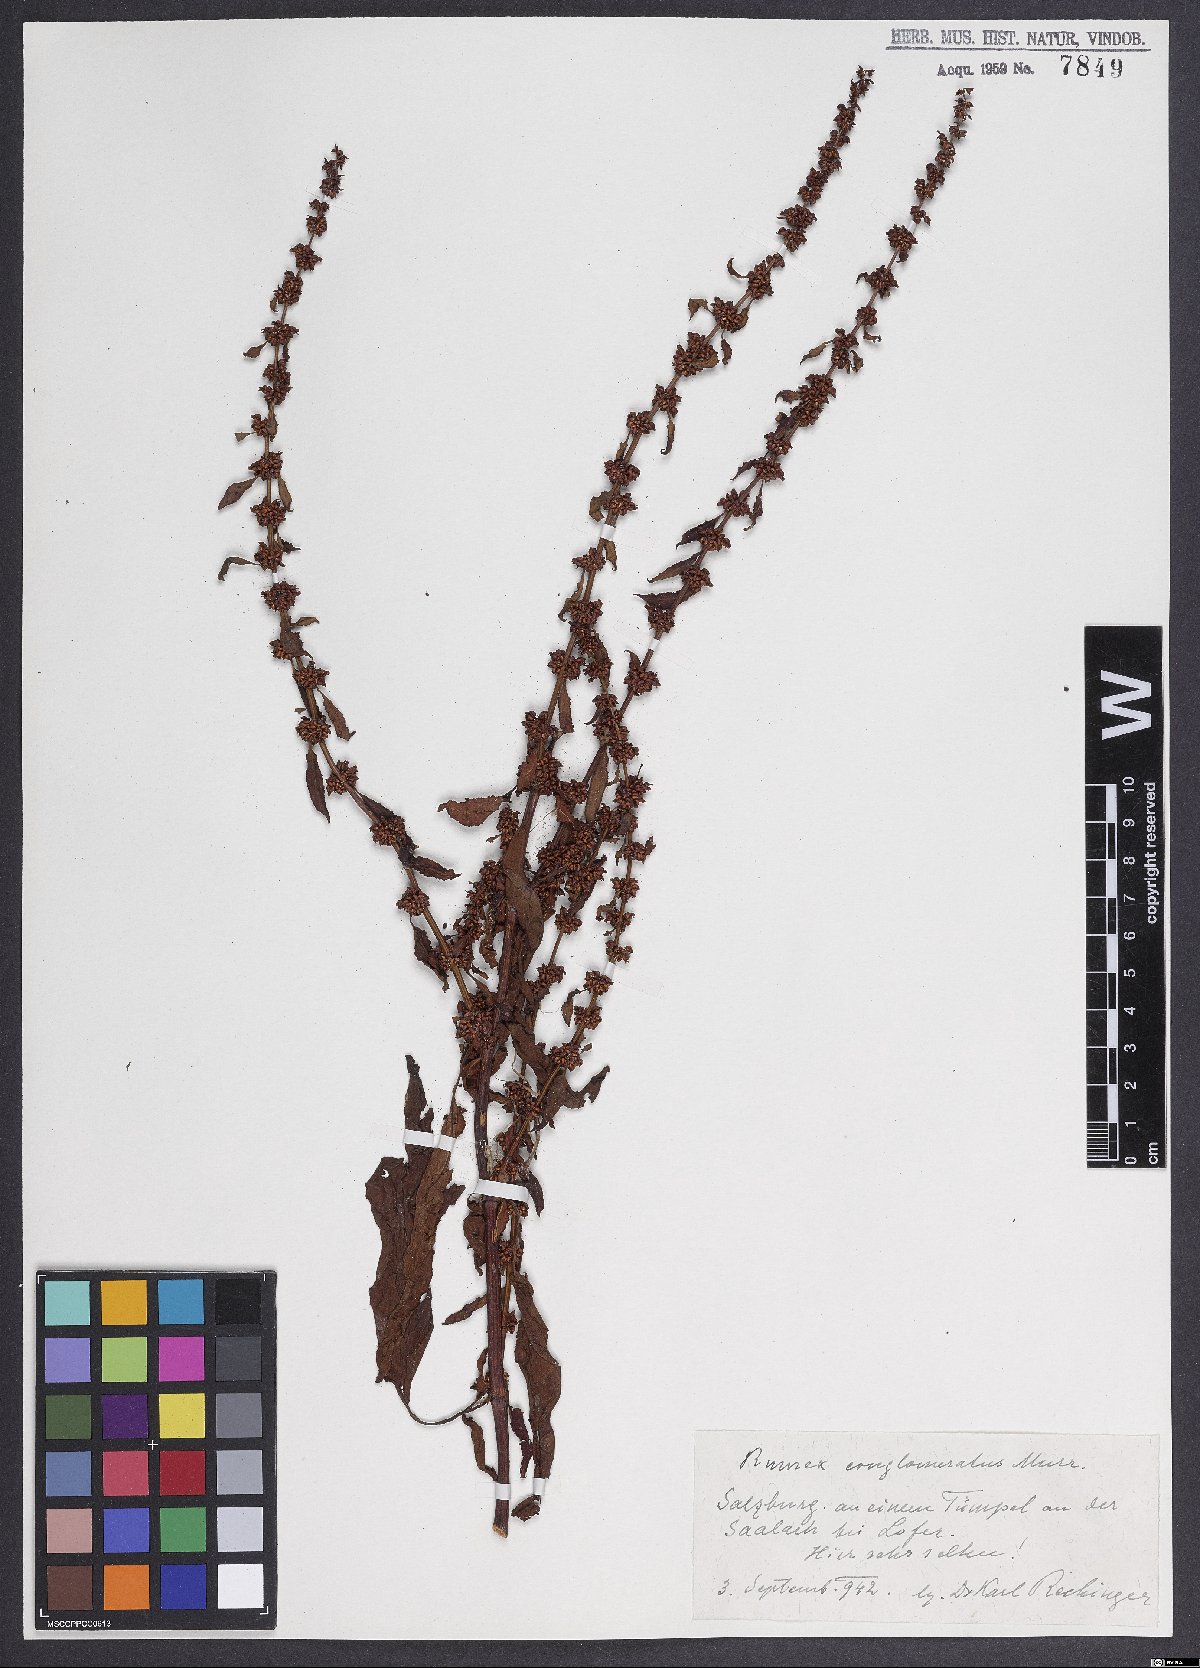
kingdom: Plantae
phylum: Tracheophyta
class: Magnoliopsida
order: Caryophyllales
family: Polygonaceae
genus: Rumex
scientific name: Rumex conglomeratus
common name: Clustered dock
